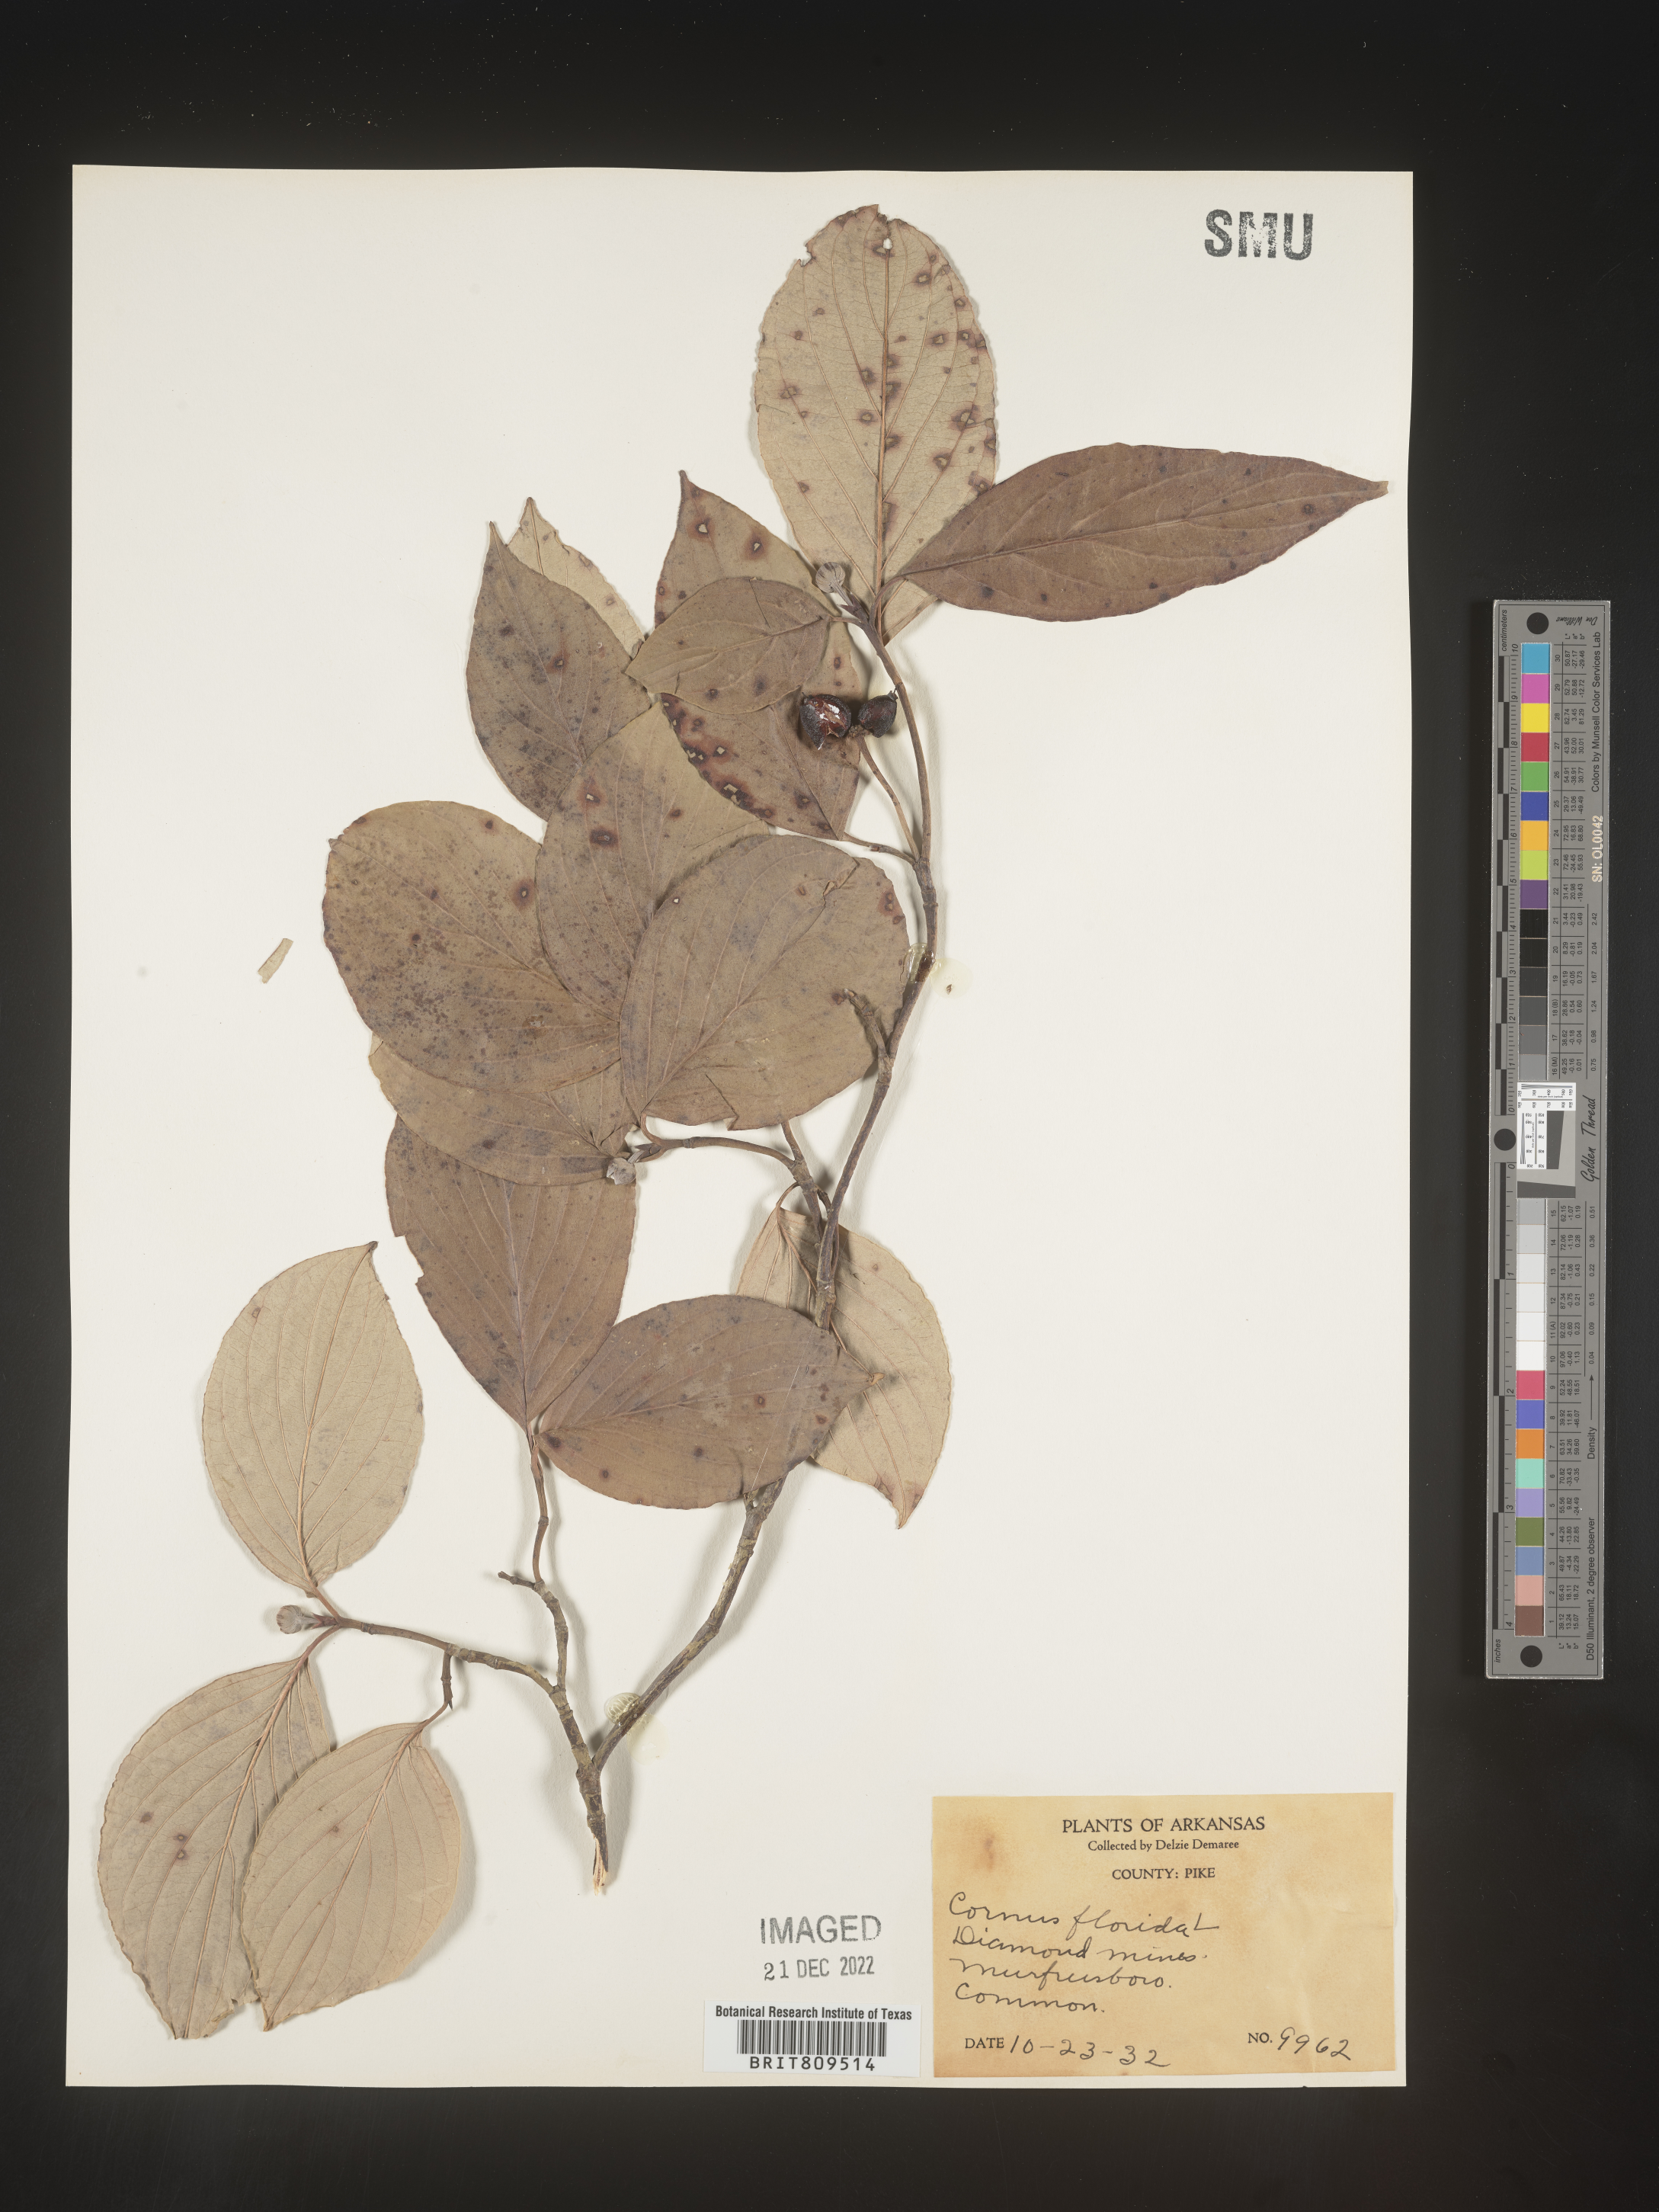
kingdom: Plantae
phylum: Tracheophyta
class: Magnoliopsida
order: Cornales
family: Cornaceae
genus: Cornus
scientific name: Cornus florida
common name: Flowering dogwood
